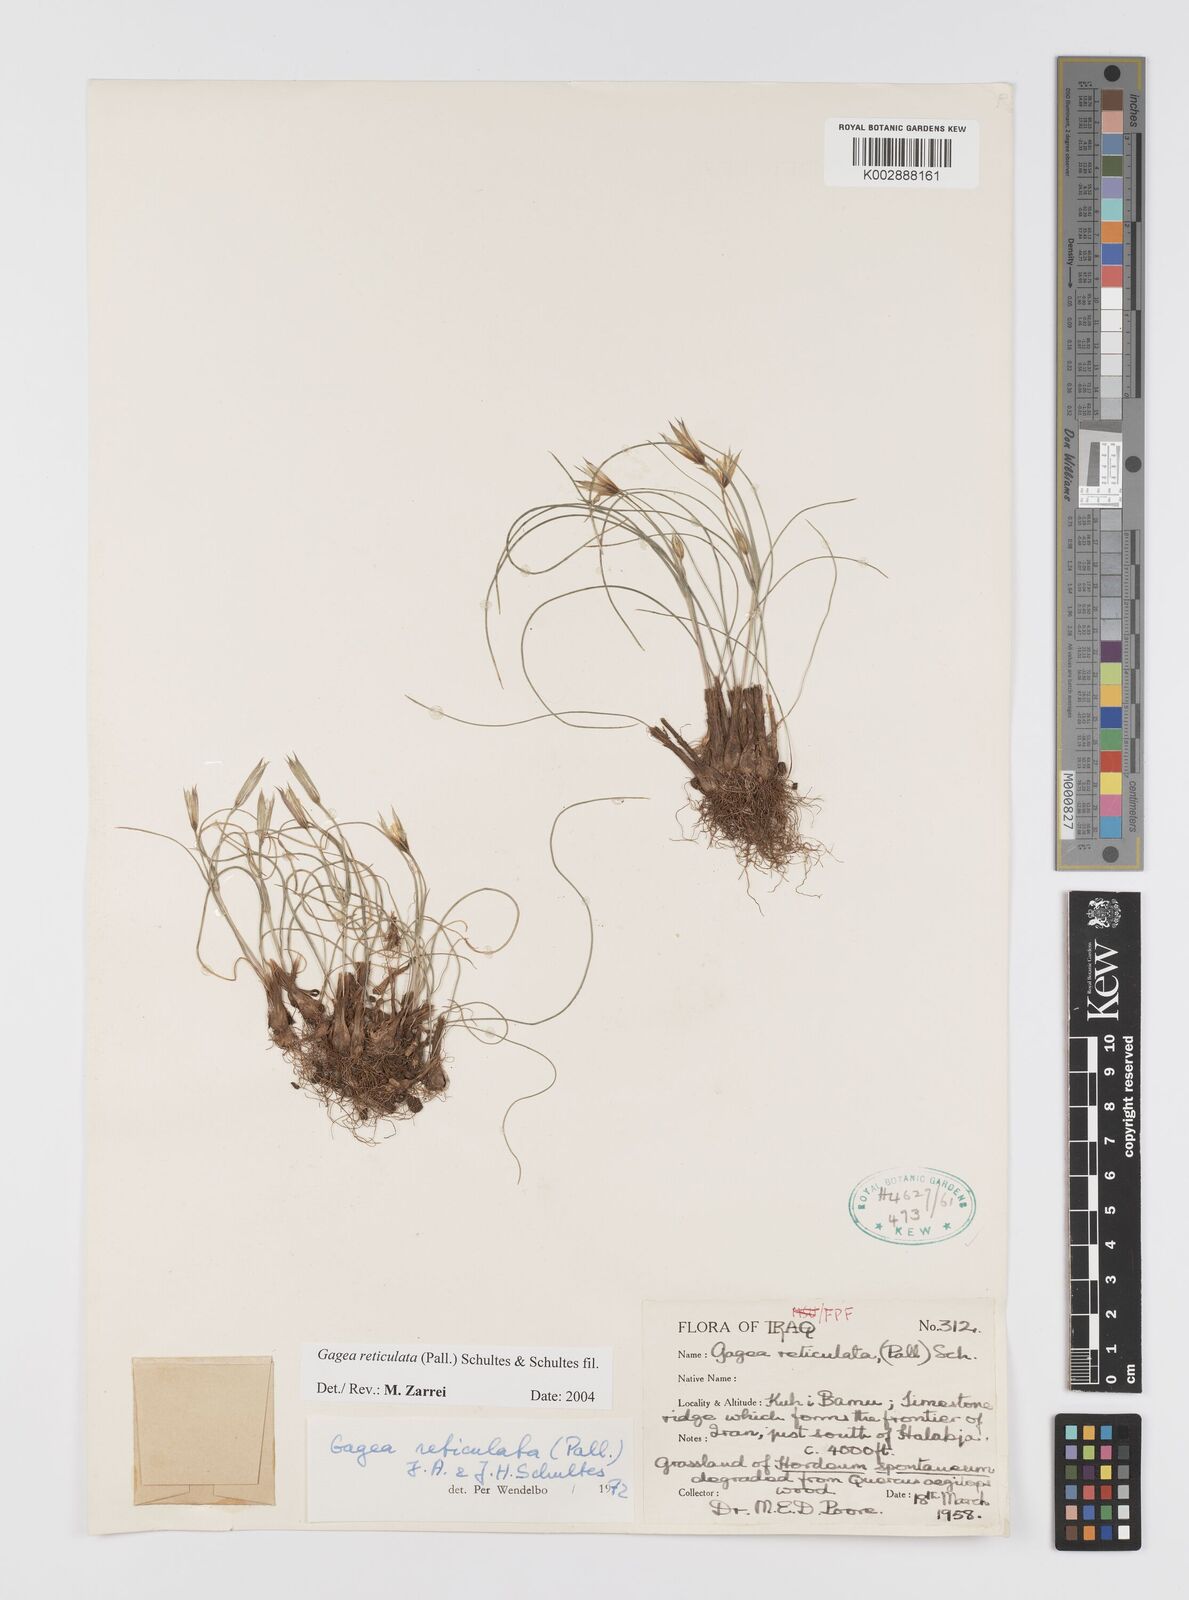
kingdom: Plantae
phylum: Tracheophyta
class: Liliopsida
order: Liliales
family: Liliaceae
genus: Gagea
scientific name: Gagea reticulata
